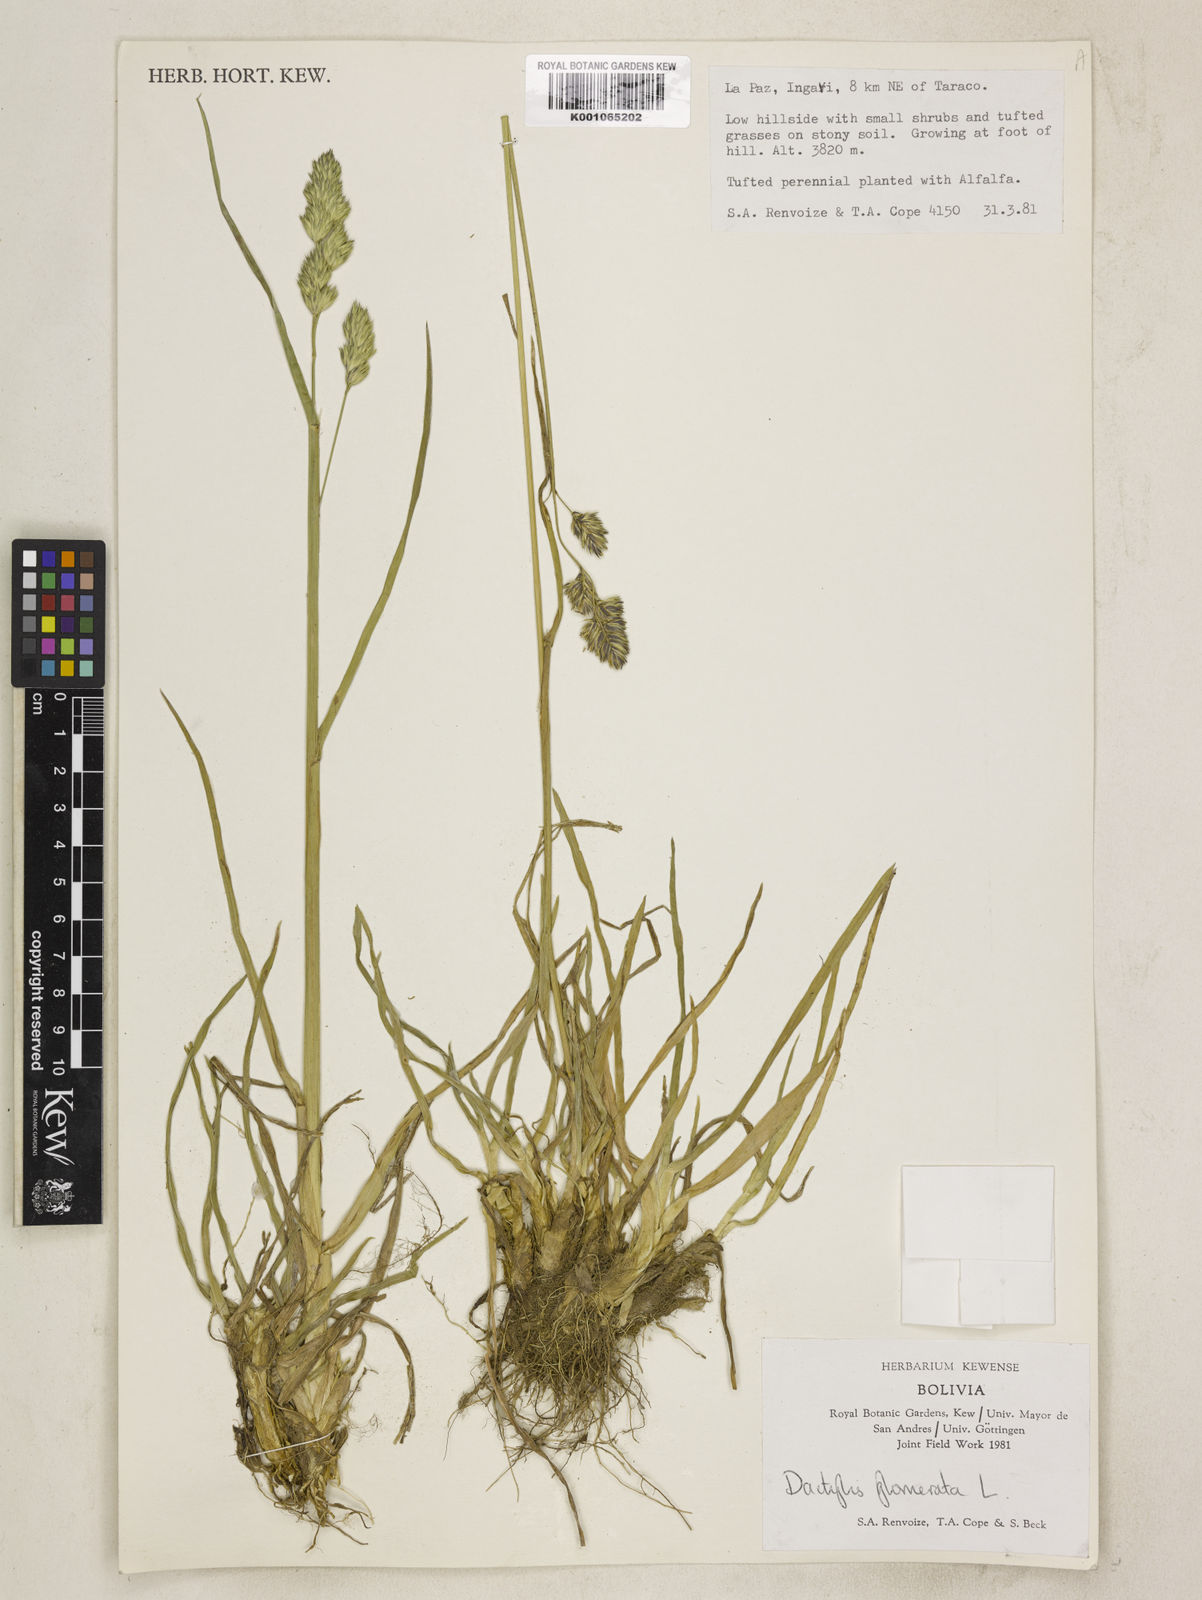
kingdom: Plantae
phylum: Tracheophyta
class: Liliopsida
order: Poales
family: Poaceae
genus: Dactylis
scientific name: Dactylis glomerata
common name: Orchardgrass
